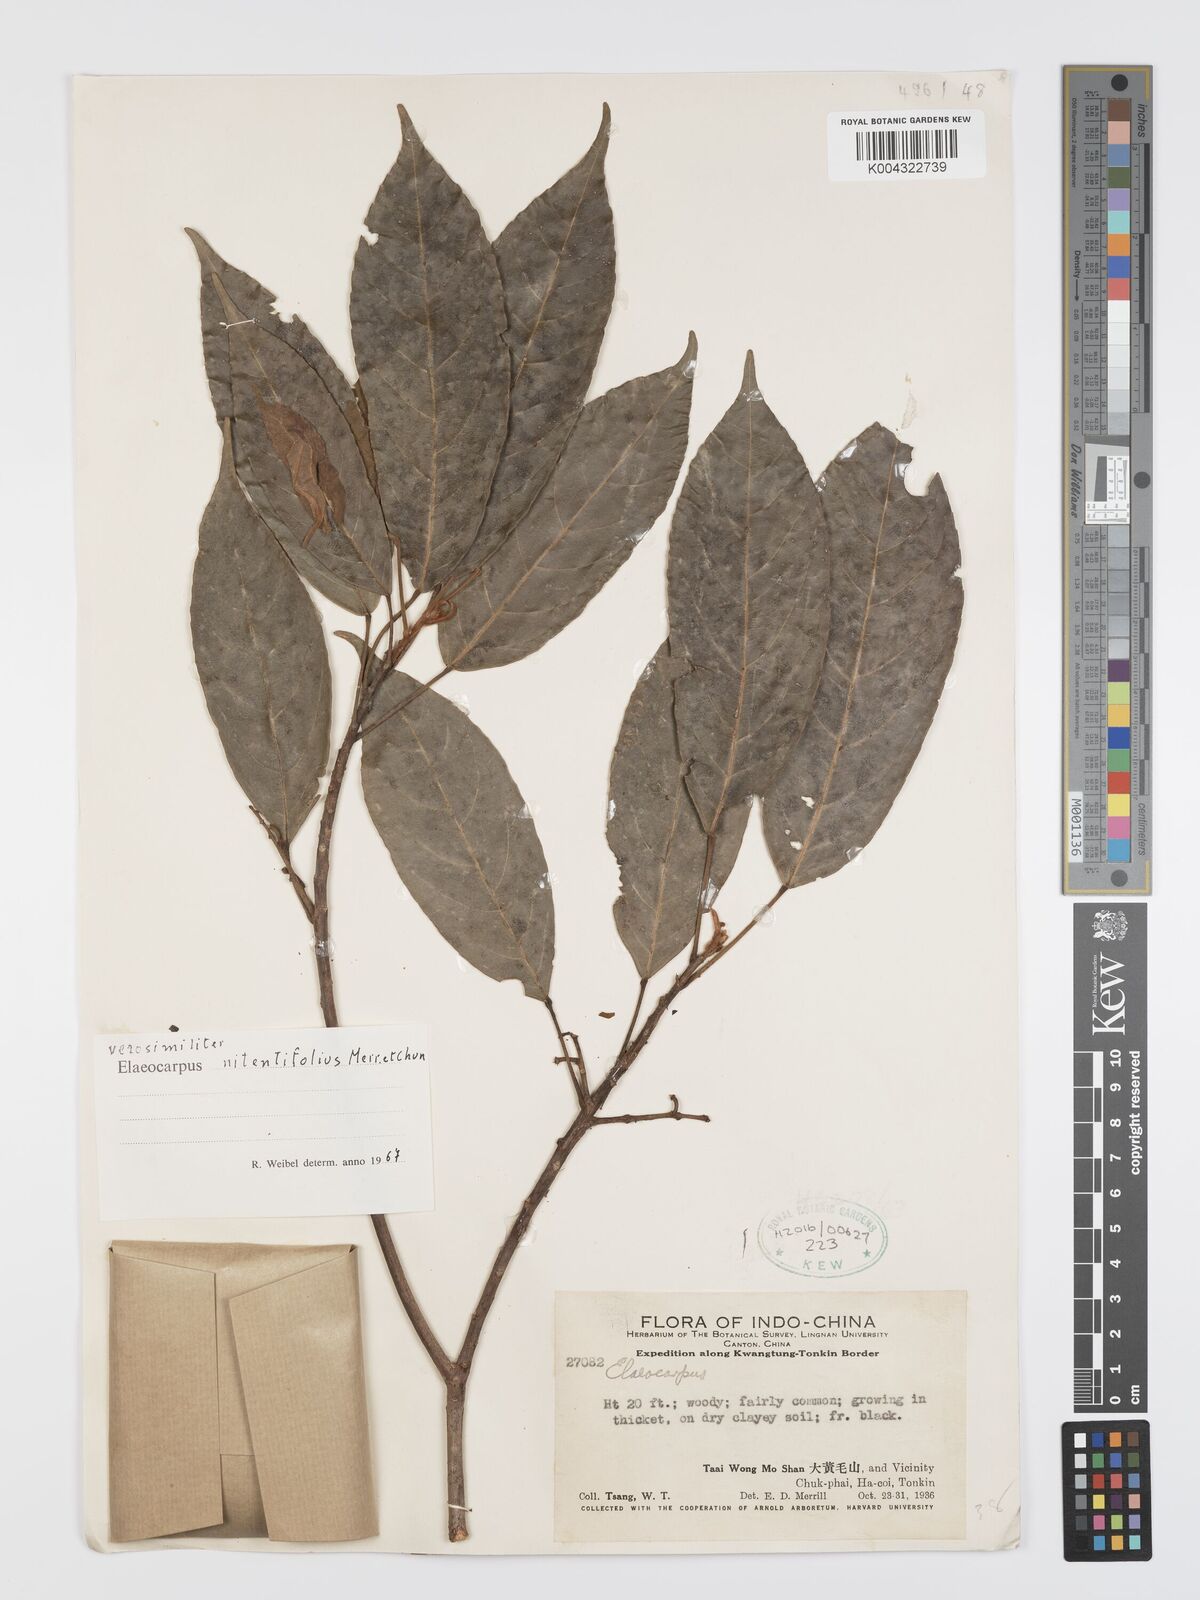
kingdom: Plantae
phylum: Tracheophyta
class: Magnoliopsida
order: Oxalidales
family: Elaeocarpaceae
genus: Elaeocarpus
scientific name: Elaeocarpus nitentifolius
